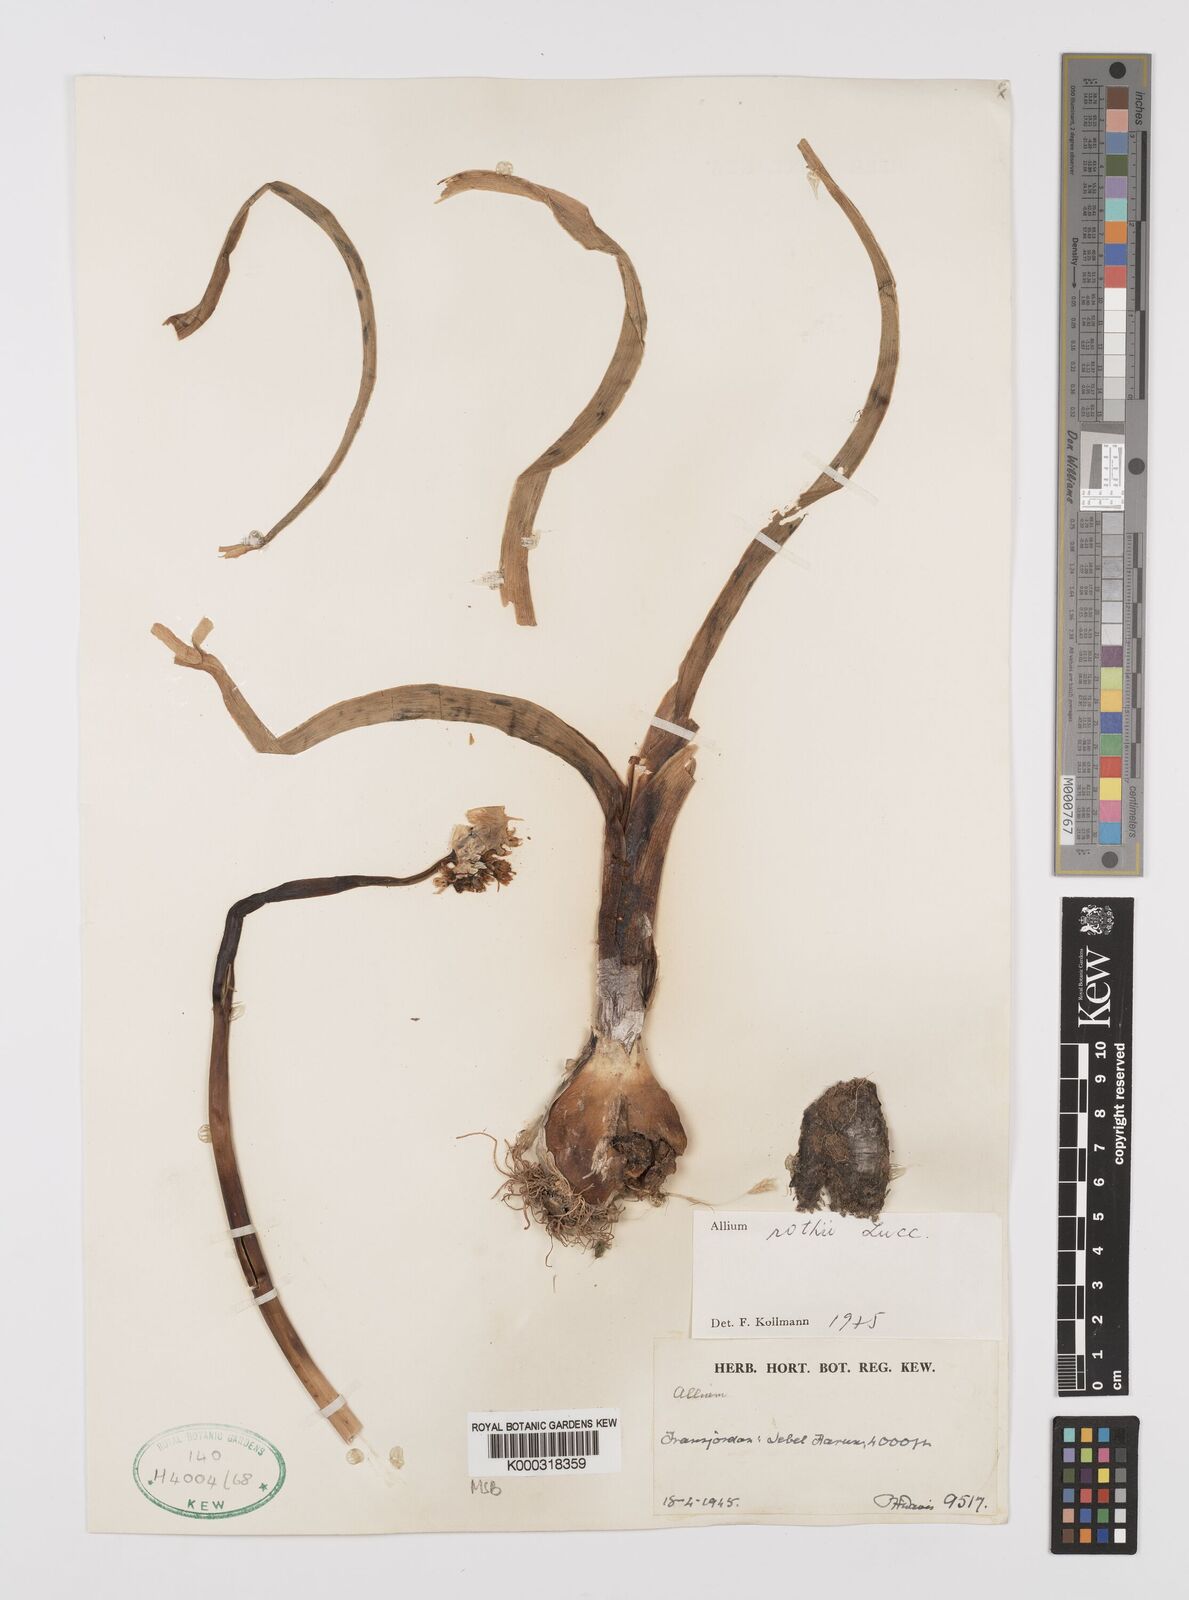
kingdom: Plantae
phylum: Tracheophyta
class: Liliopsida
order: Asparagales
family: Amaryllidaceae
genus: Allium
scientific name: Allium rothii
